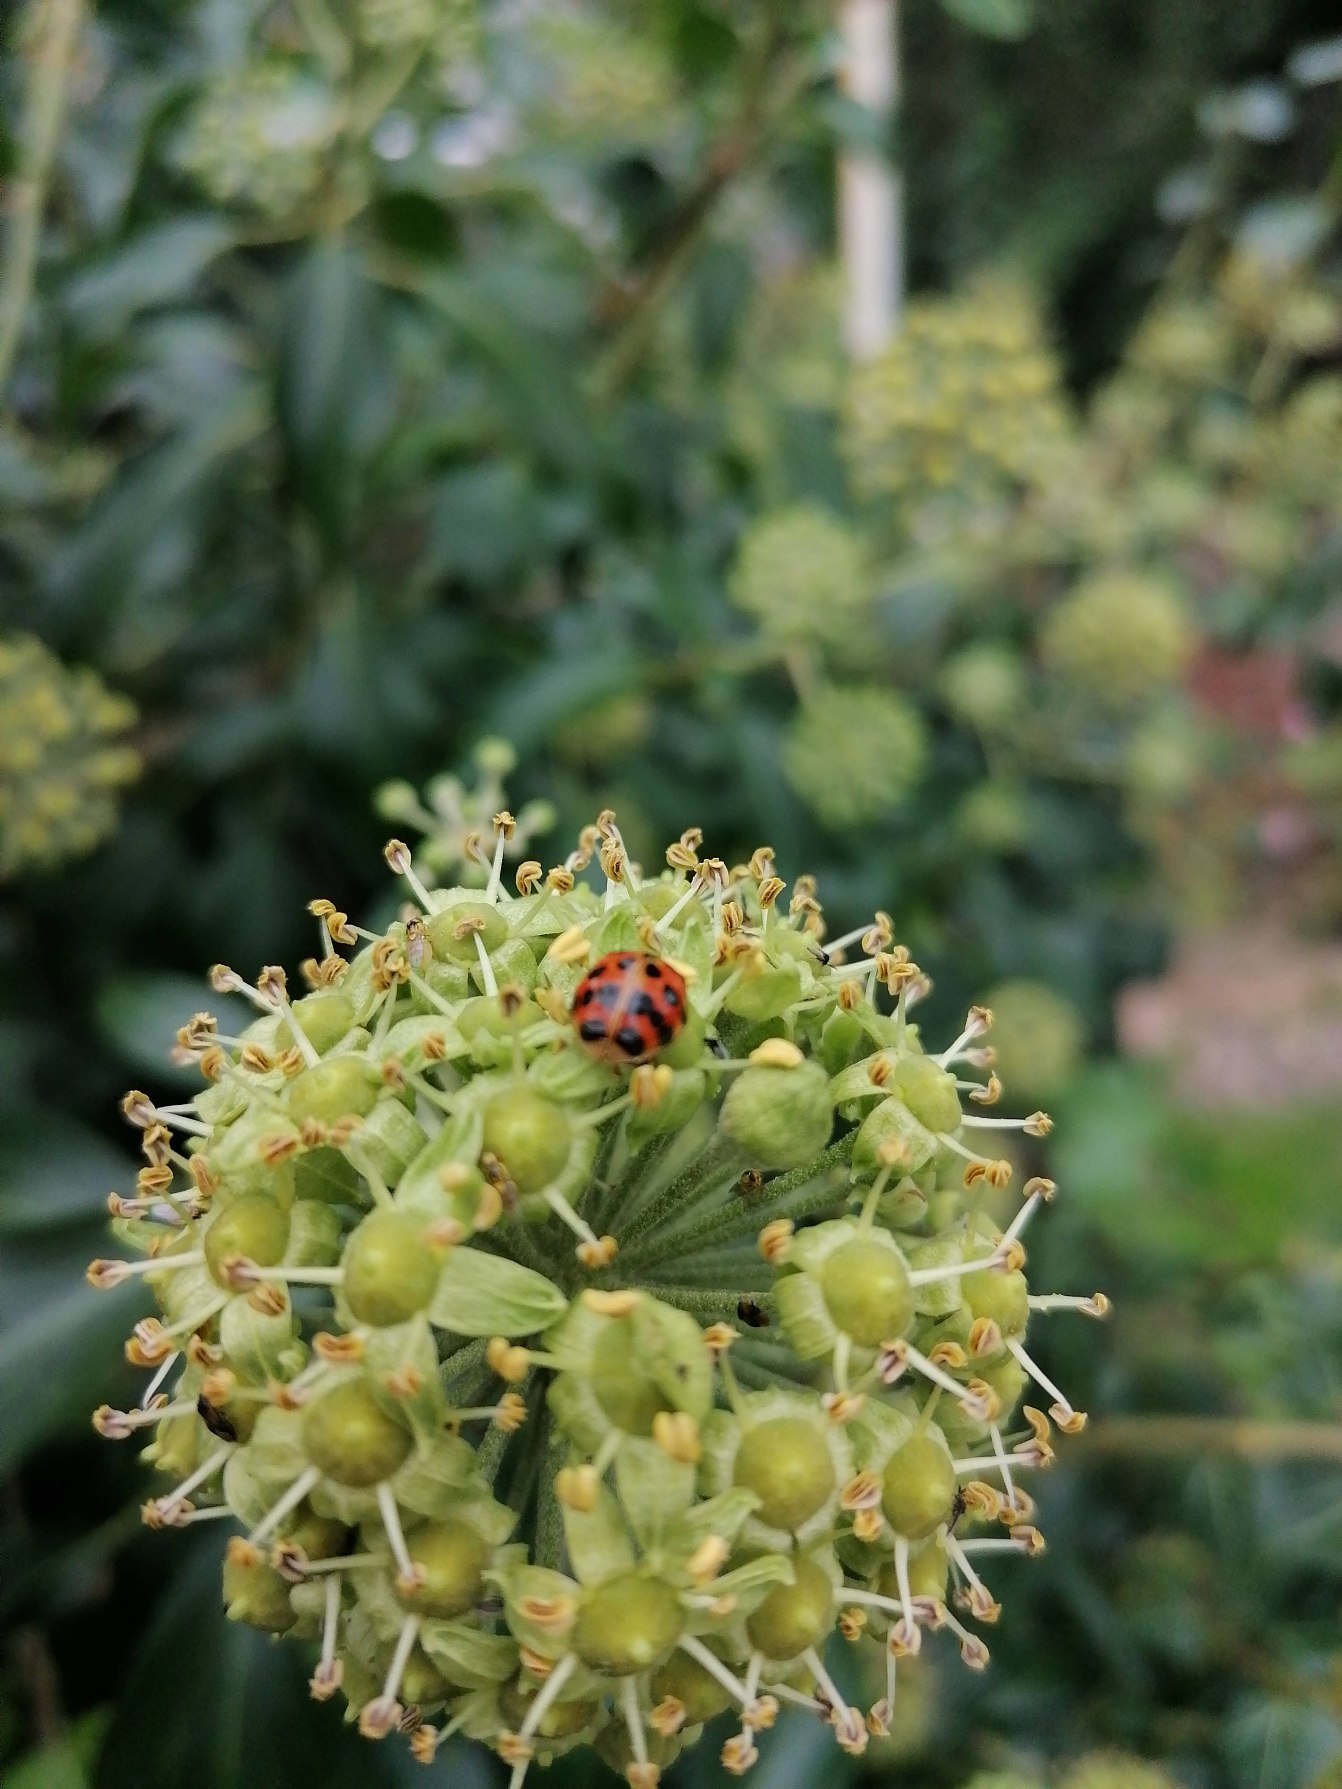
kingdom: Animalia
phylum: Arthropoda
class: Insecta
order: Coleoptera
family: Coccinellidae
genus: Harmonia
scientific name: Harmonia axyridis
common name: Harlekinmariehøne
